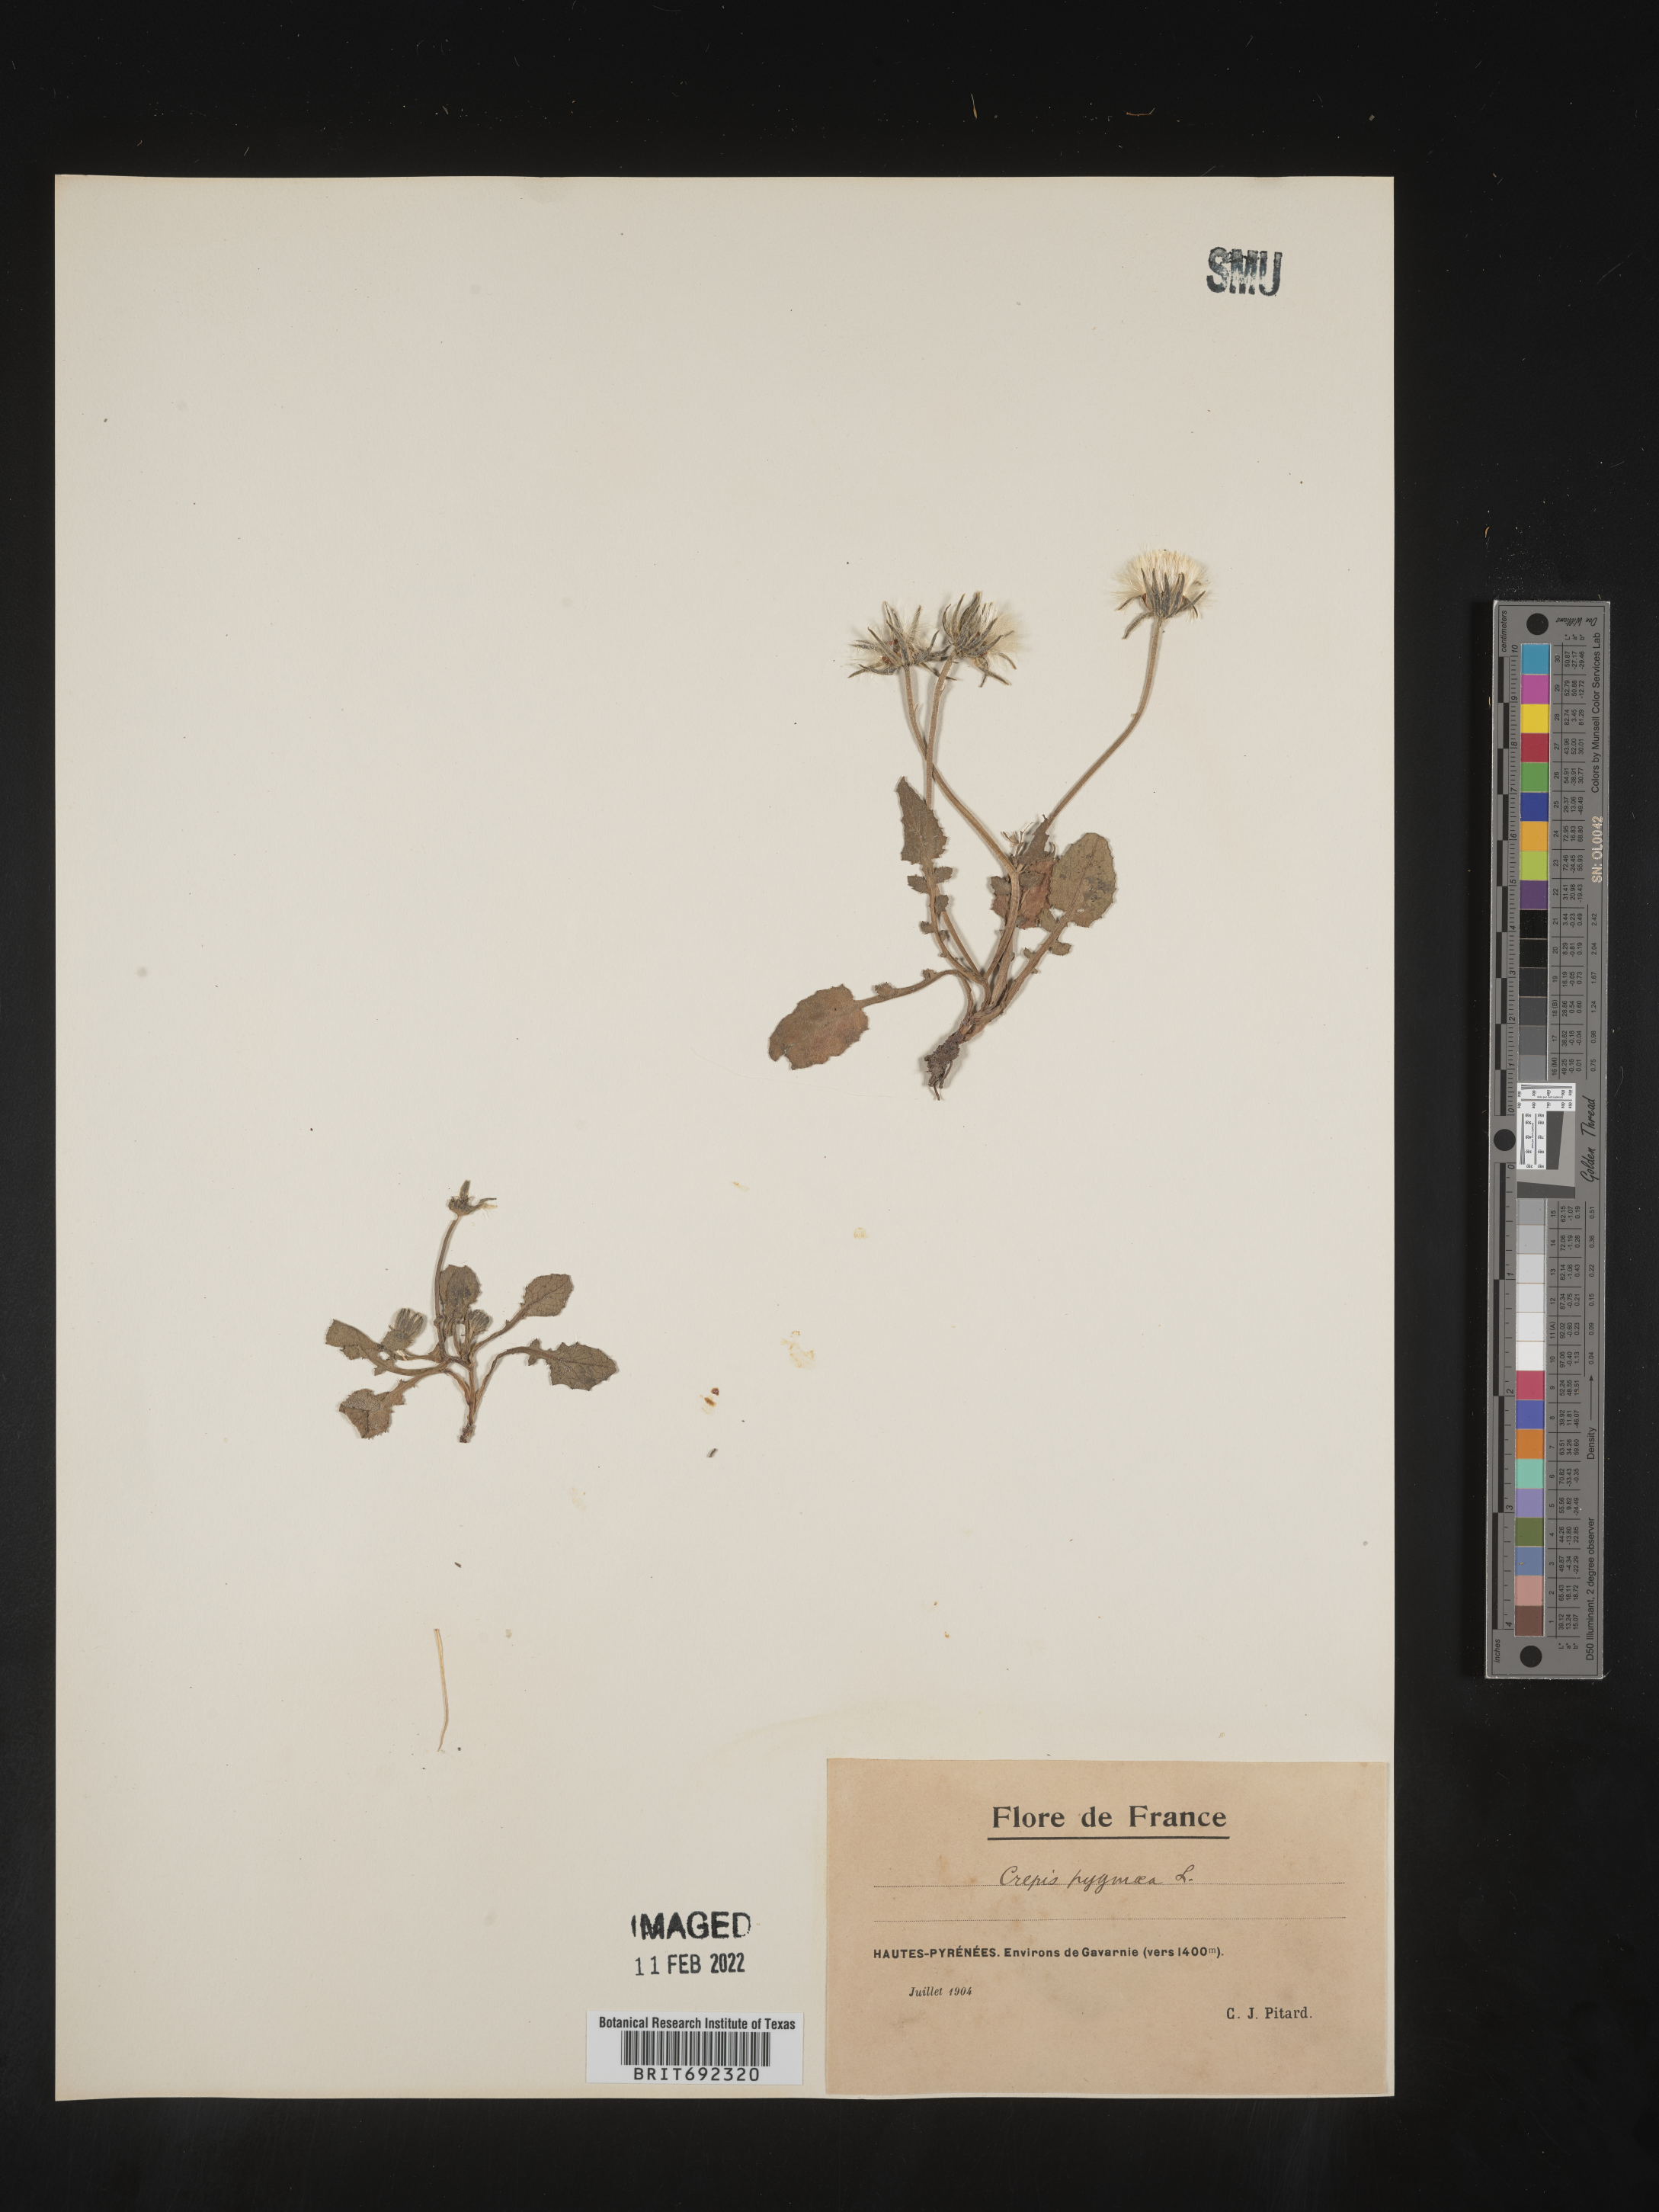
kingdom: Plantae
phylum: Tracheophyta
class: Magnoliopsida
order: Asterales
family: Asteraceae
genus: Crepis
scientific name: Crepis
